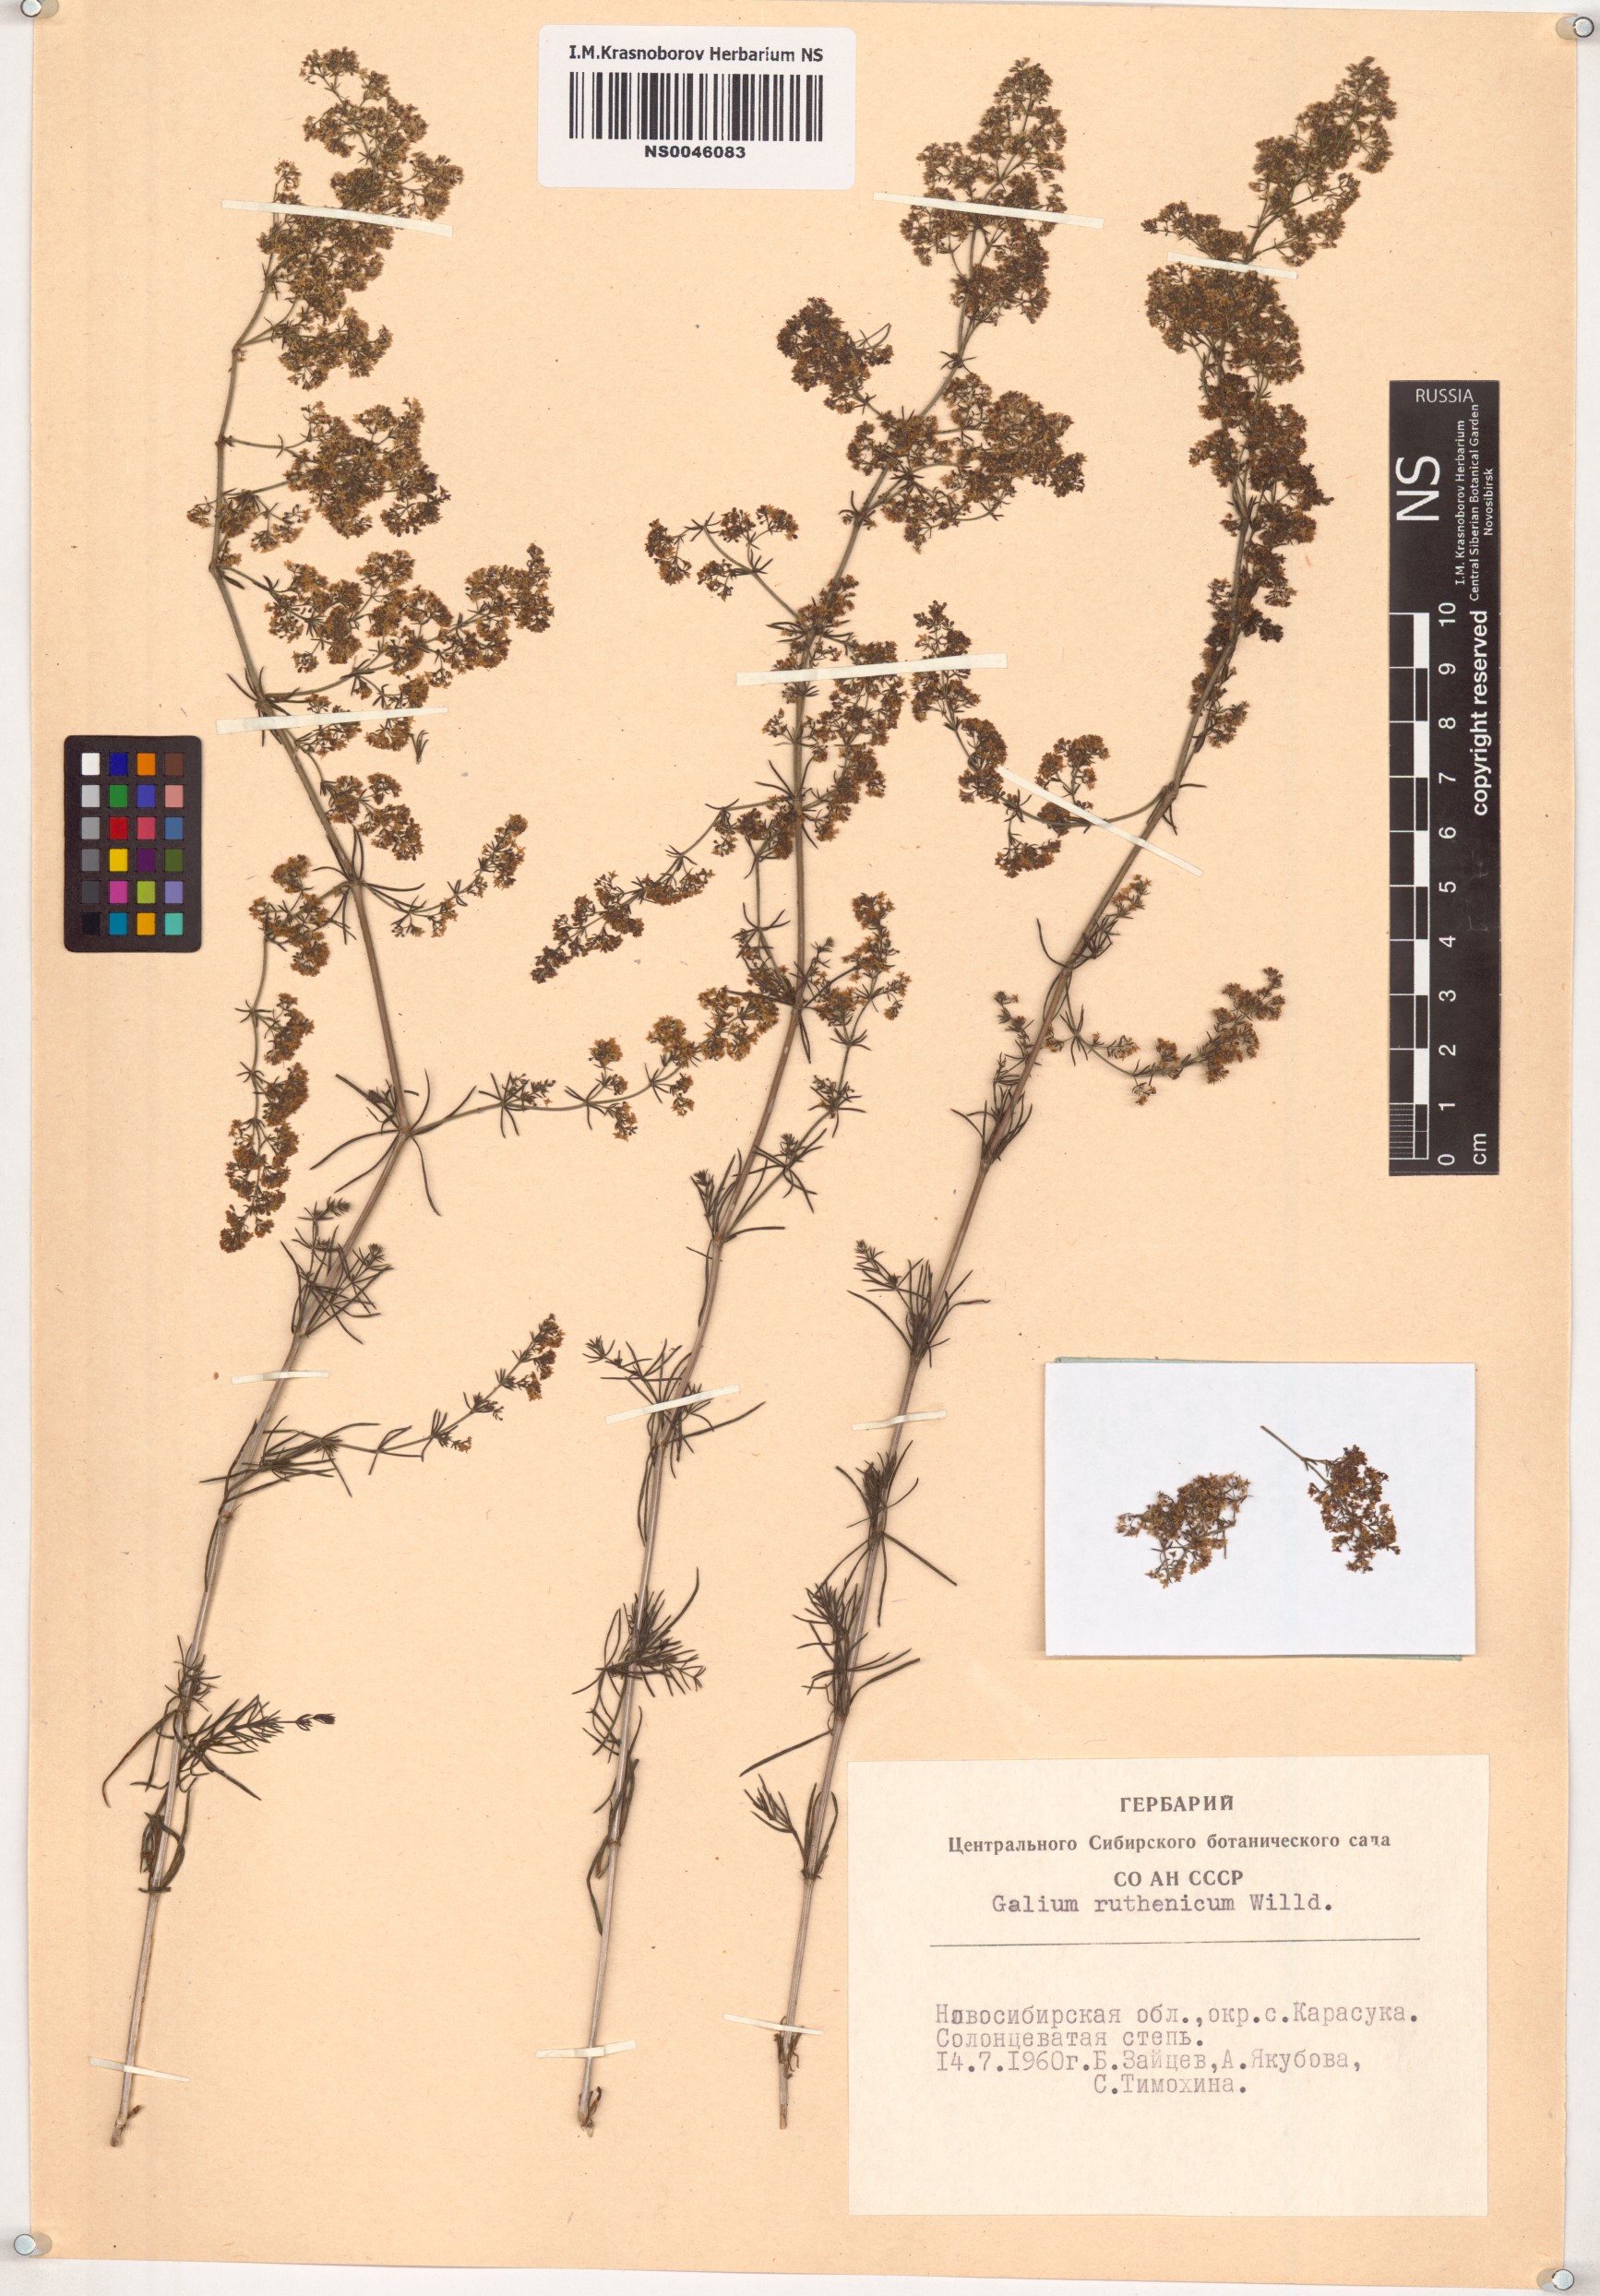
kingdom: Plantae
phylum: Tracheophyta
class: Magnoliopsida
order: Gentianales
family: Rubiaceae
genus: Galium
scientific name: Galium verum
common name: Lady's bedstraw
